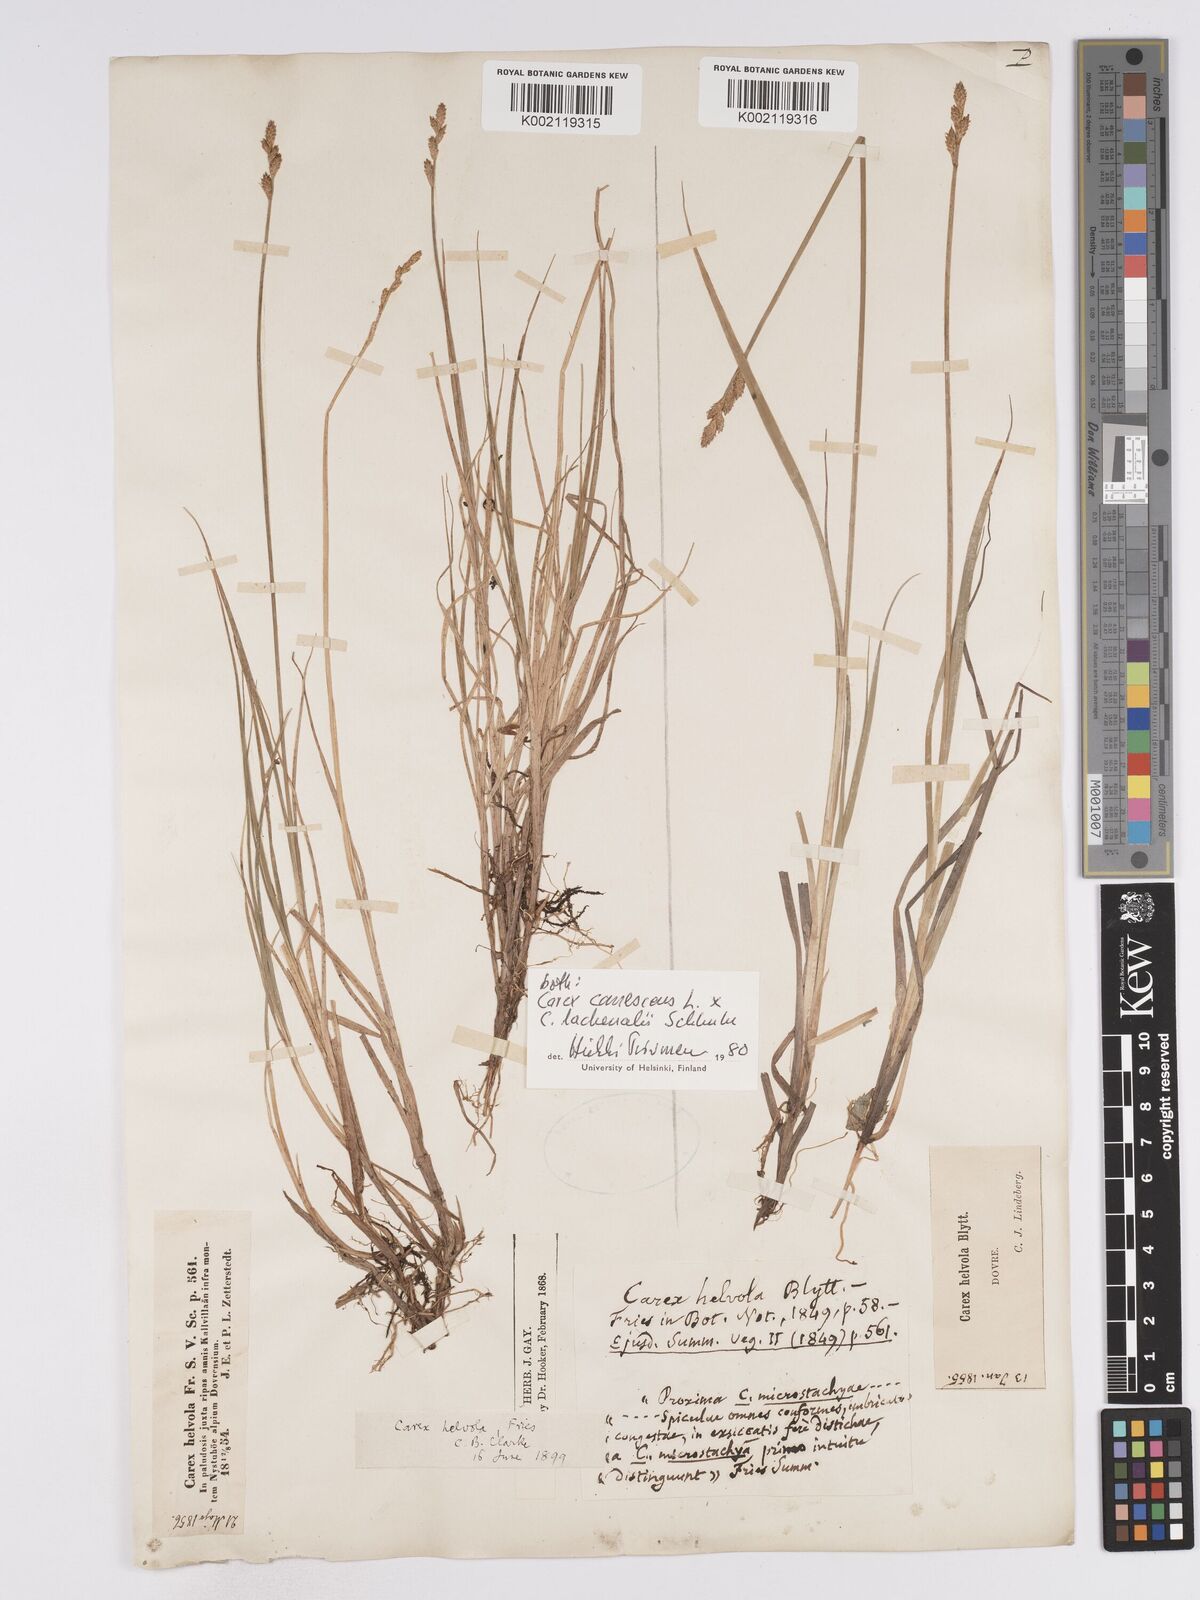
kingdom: Plantae
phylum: Tracheophyta
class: Liliopsida
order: Poales
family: Cyperaceae
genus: Carex
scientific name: Carex
